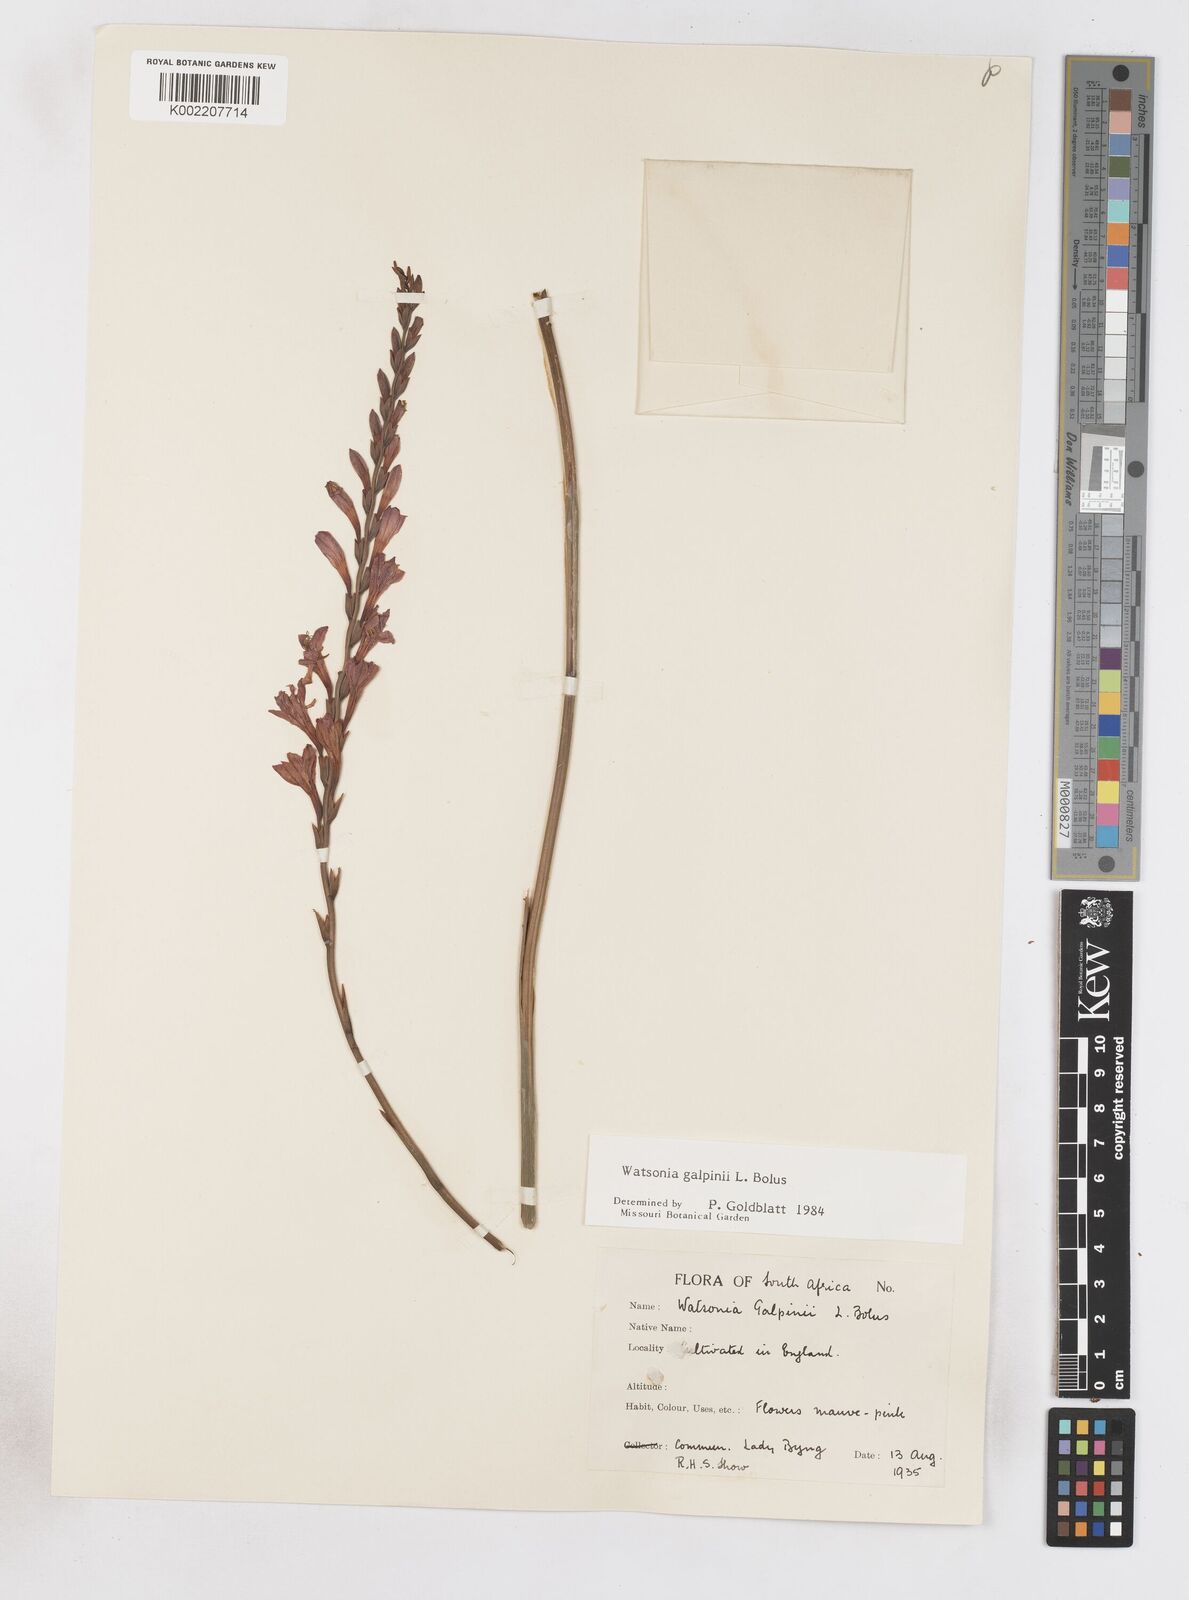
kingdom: Plantae
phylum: Tracheophyta
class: Liliopsida
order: Asparagales
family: Iridaceae
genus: Watsonia
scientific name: Watsonia galpinii
